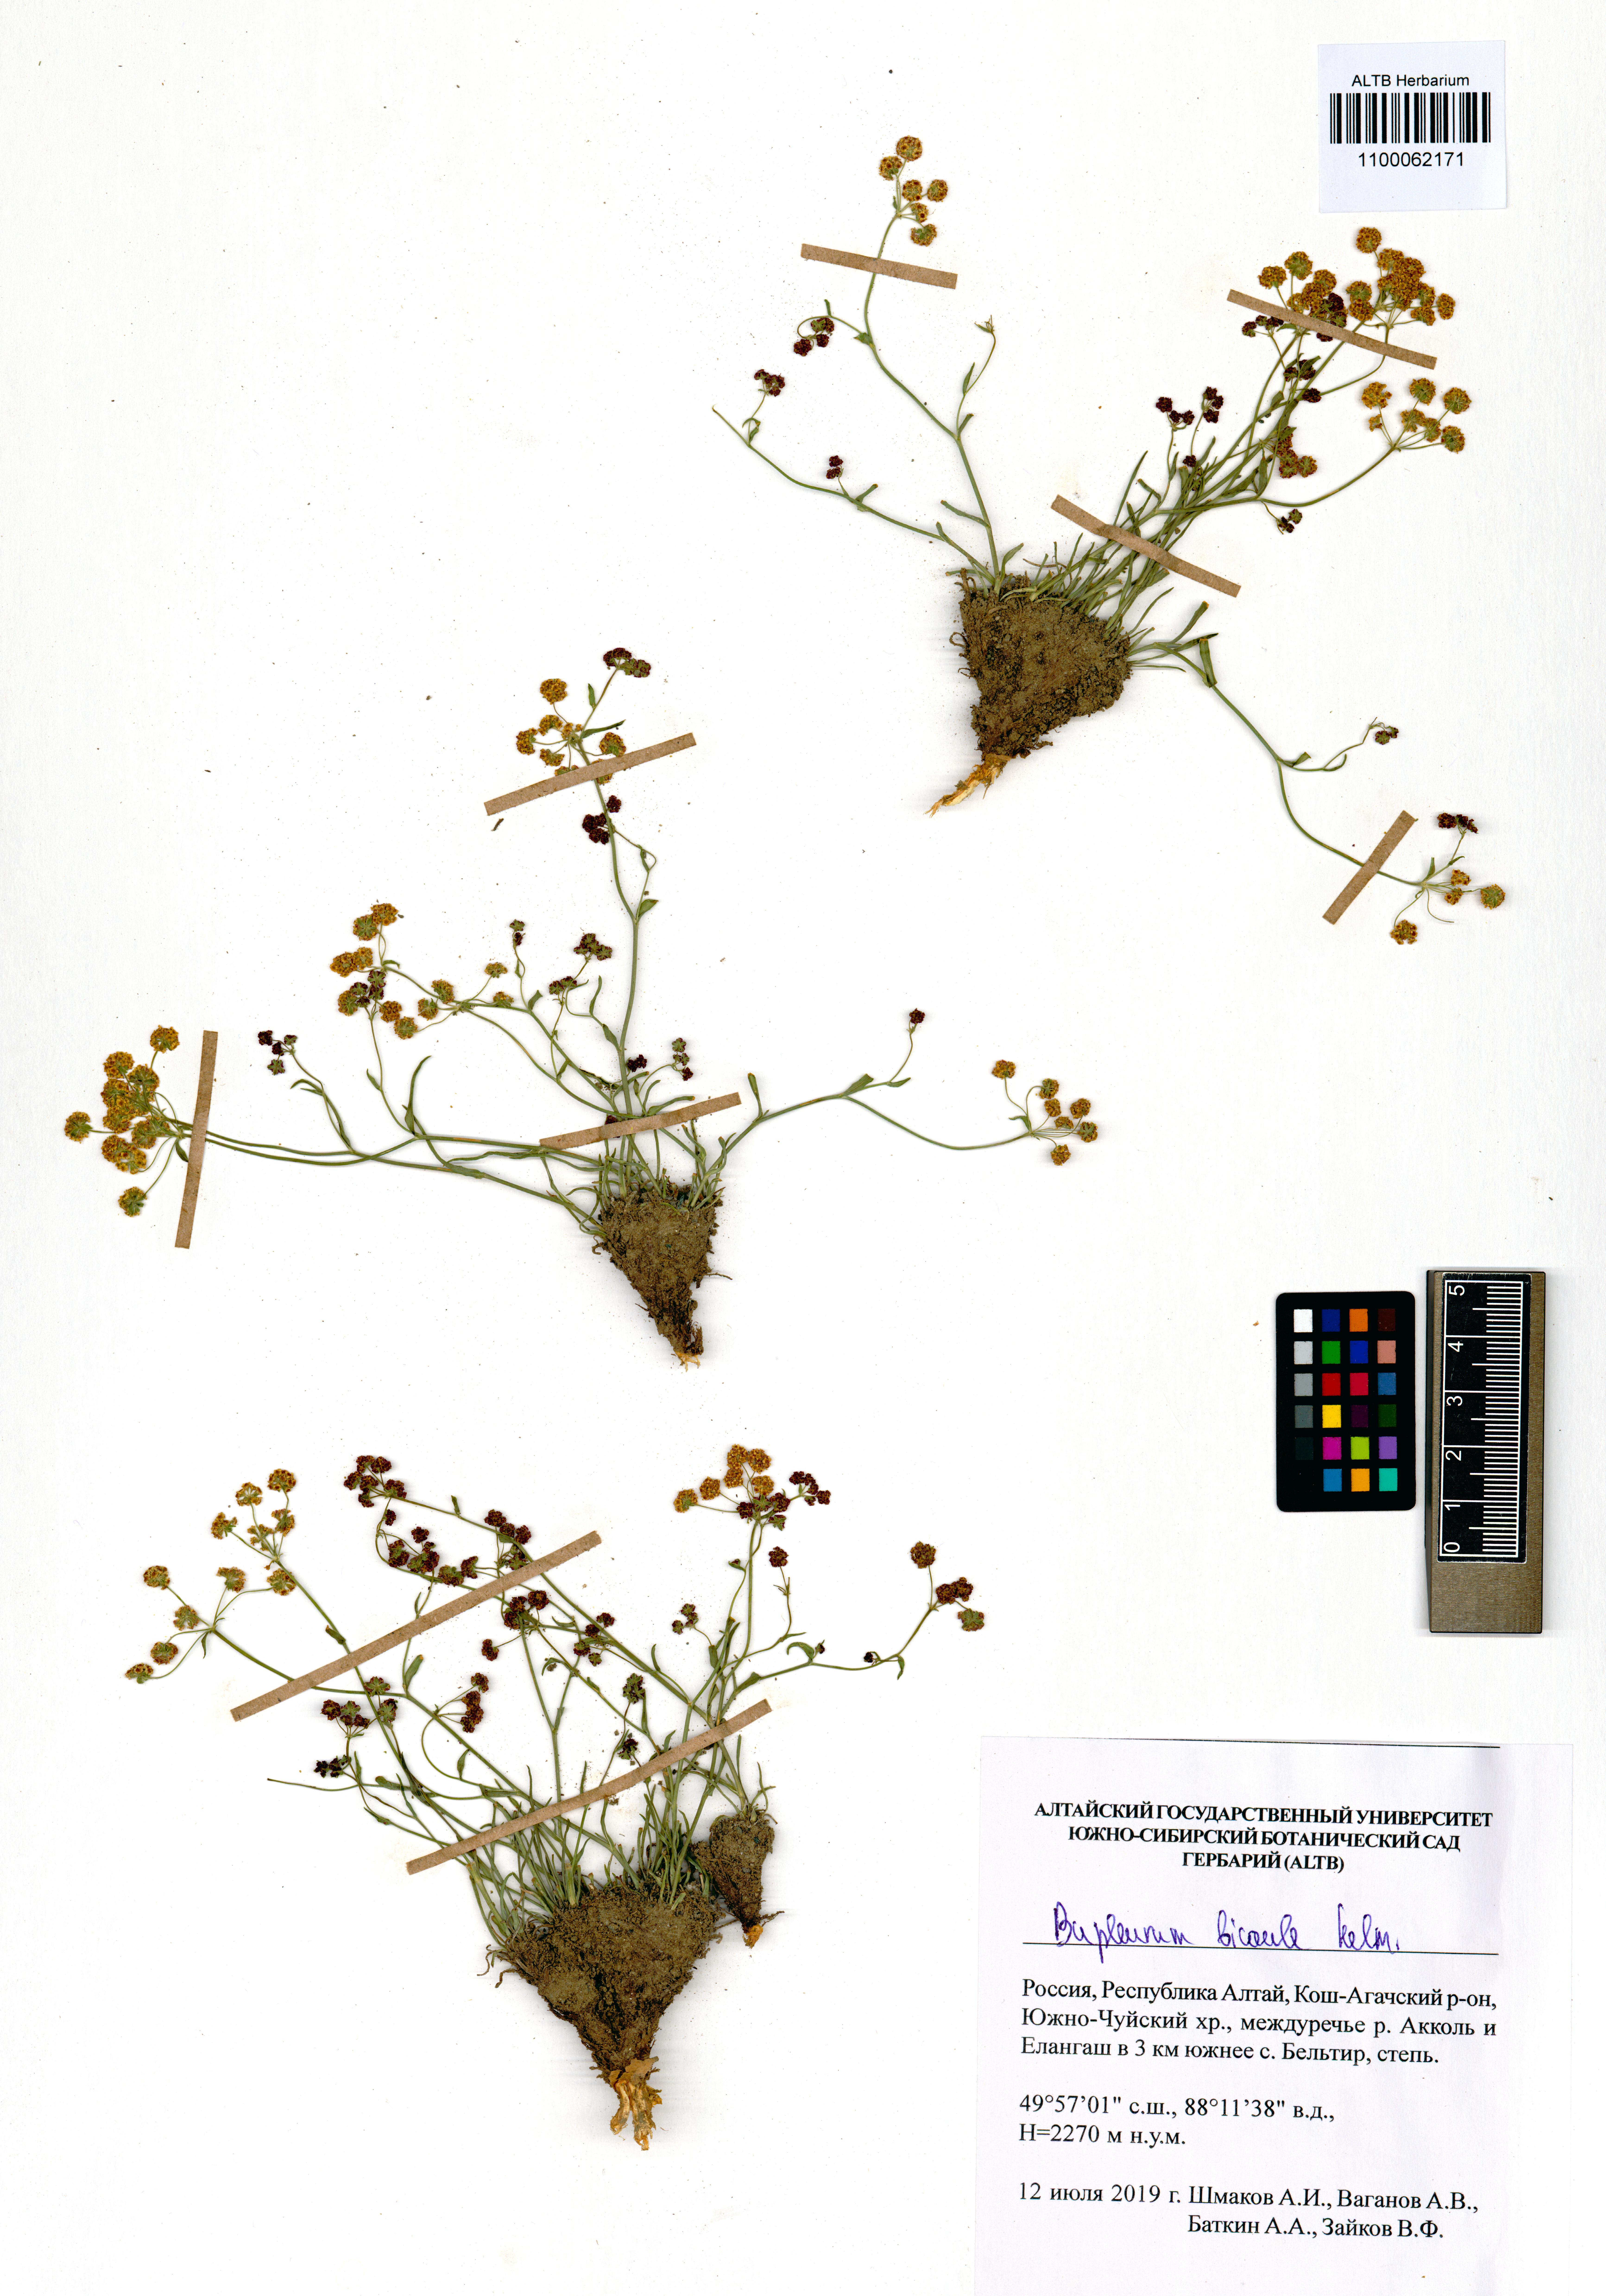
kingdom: Plantae
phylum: Tracheophyta
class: Magnoliopsida
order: Apiales
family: Apiaceae
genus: Bupleurum
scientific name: Bupleurum bicaule
